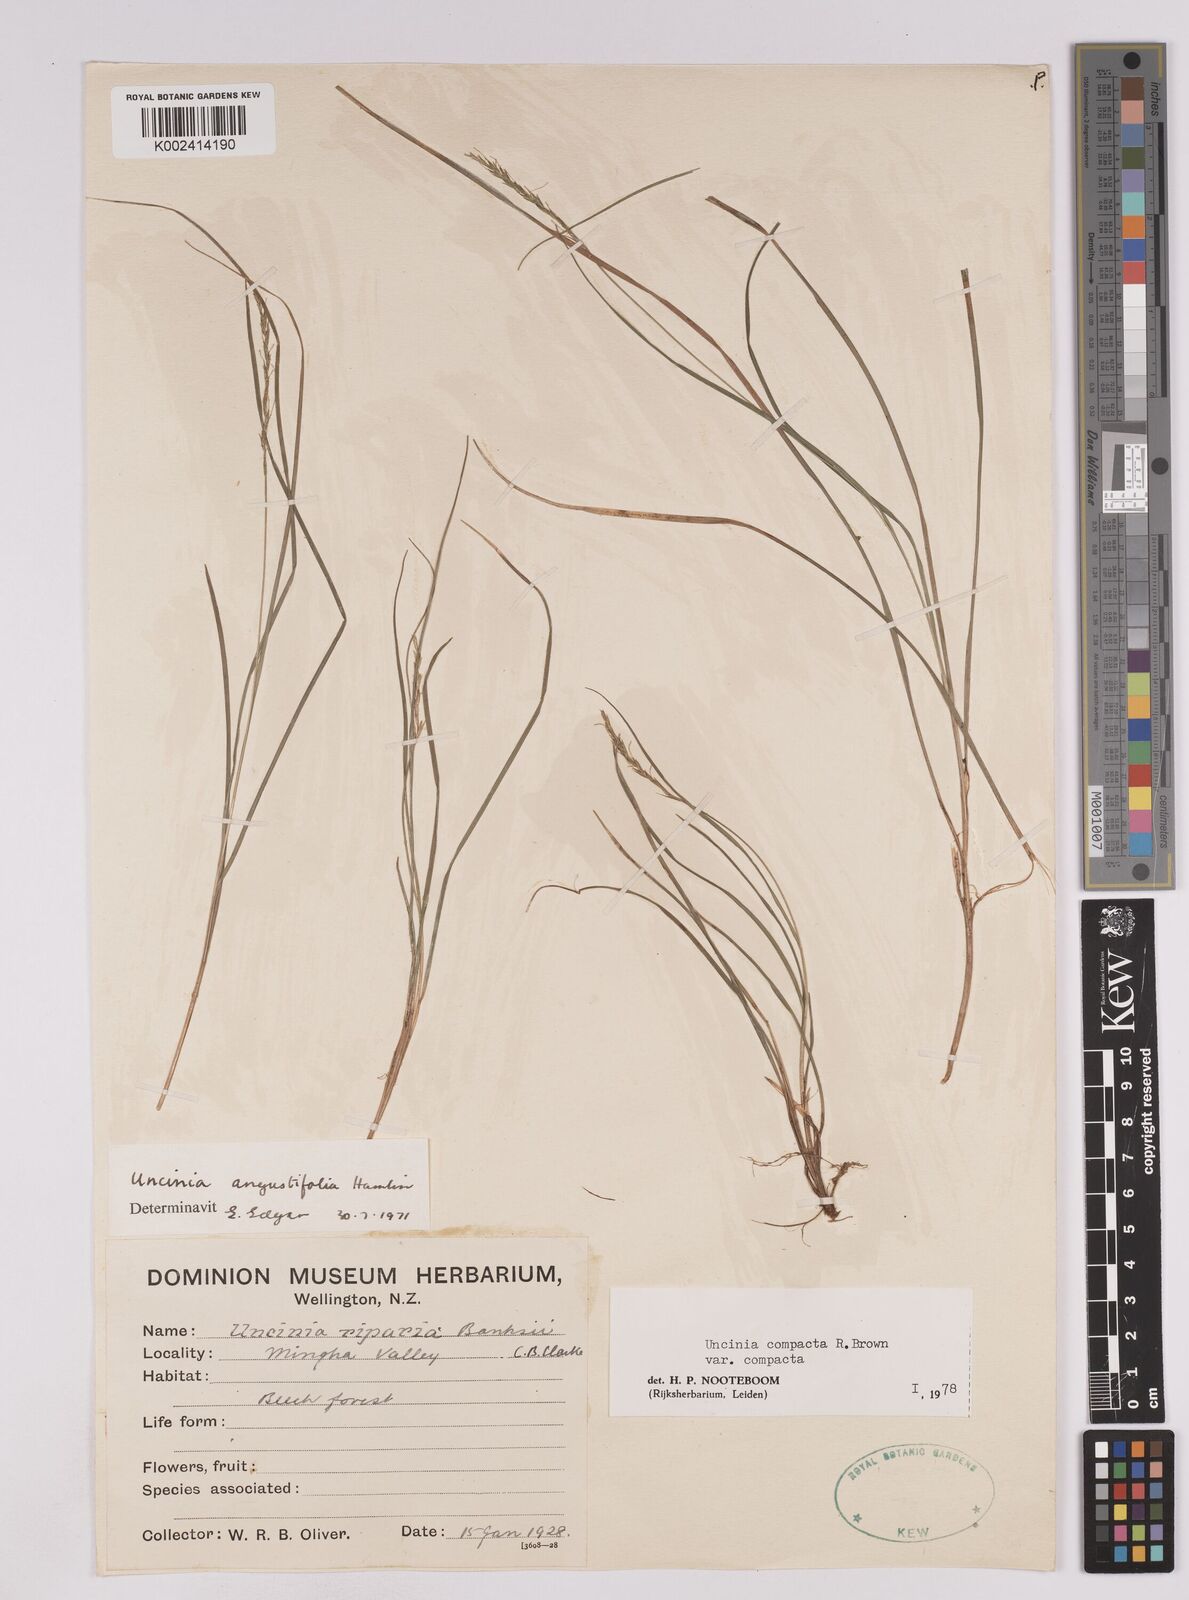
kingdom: Plantae
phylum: Tracheophyta
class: Liliopsida
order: Poales
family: Cyperaceae
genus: Carex
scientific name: Carex austrocompacta
